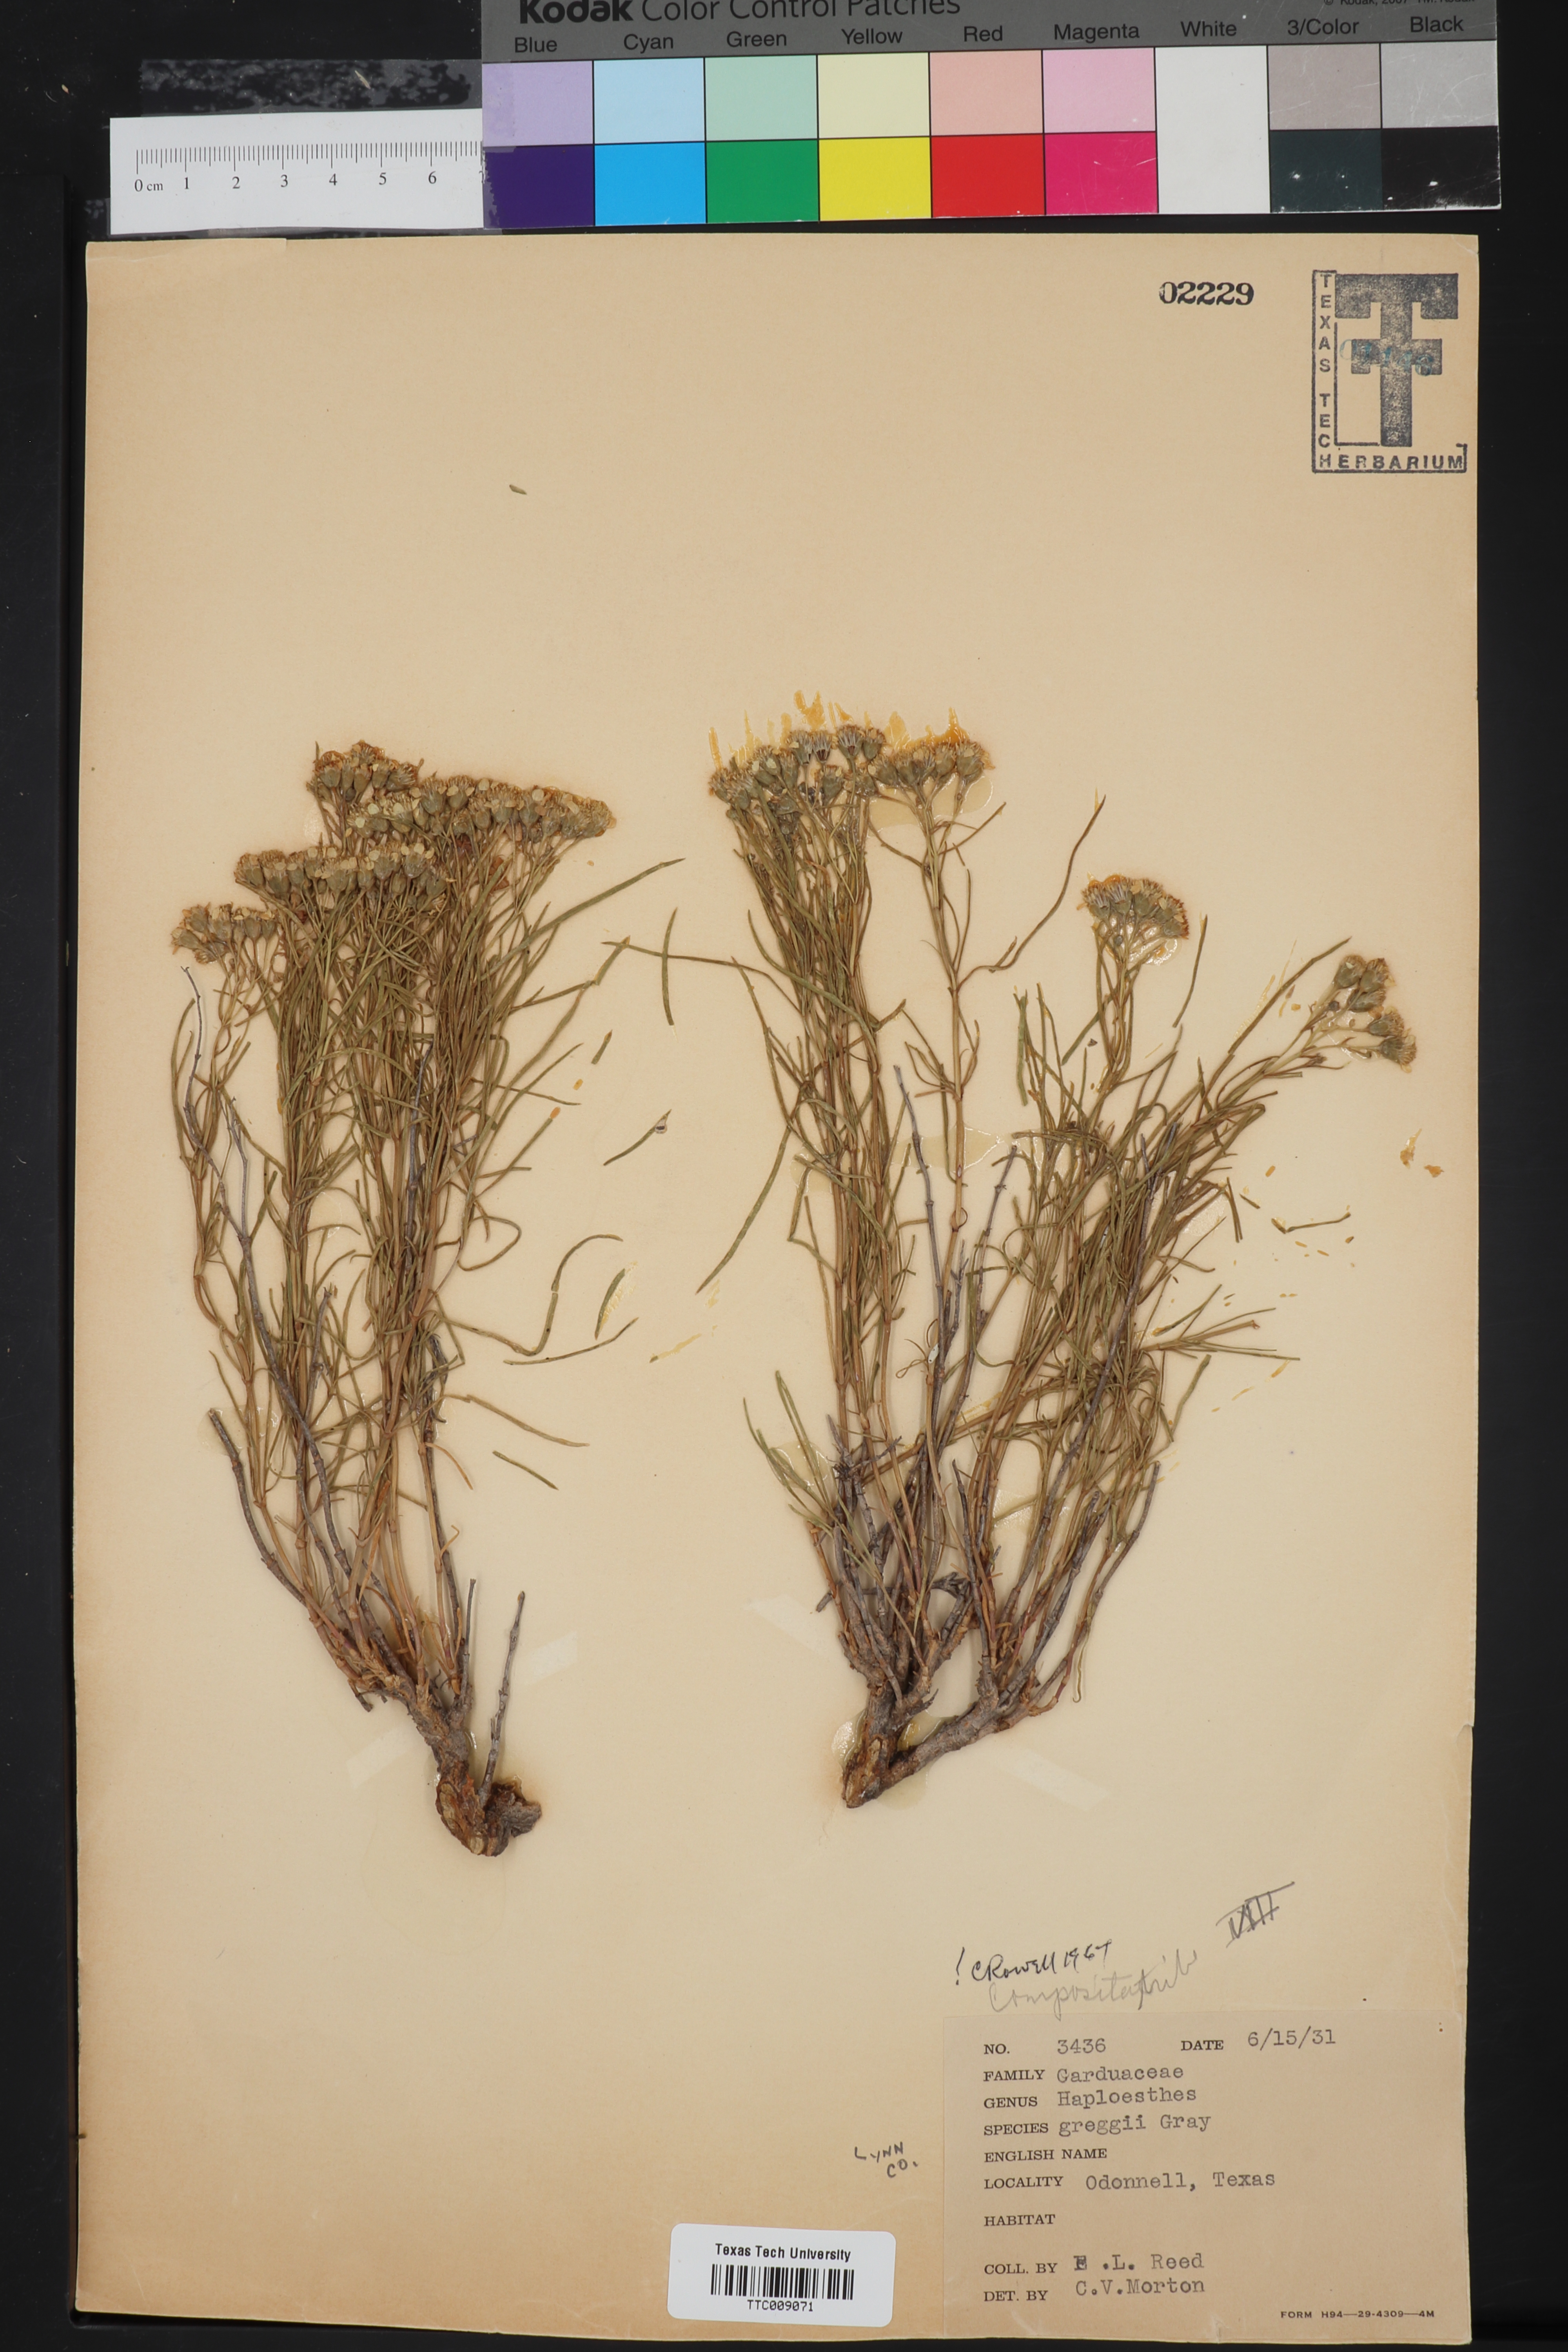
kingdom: Plantae
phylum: Tracheophyta
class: Magnoliopsida
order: Asterales
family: Asteraceae
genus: Haploesthes
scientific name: Haploesthes greggii
